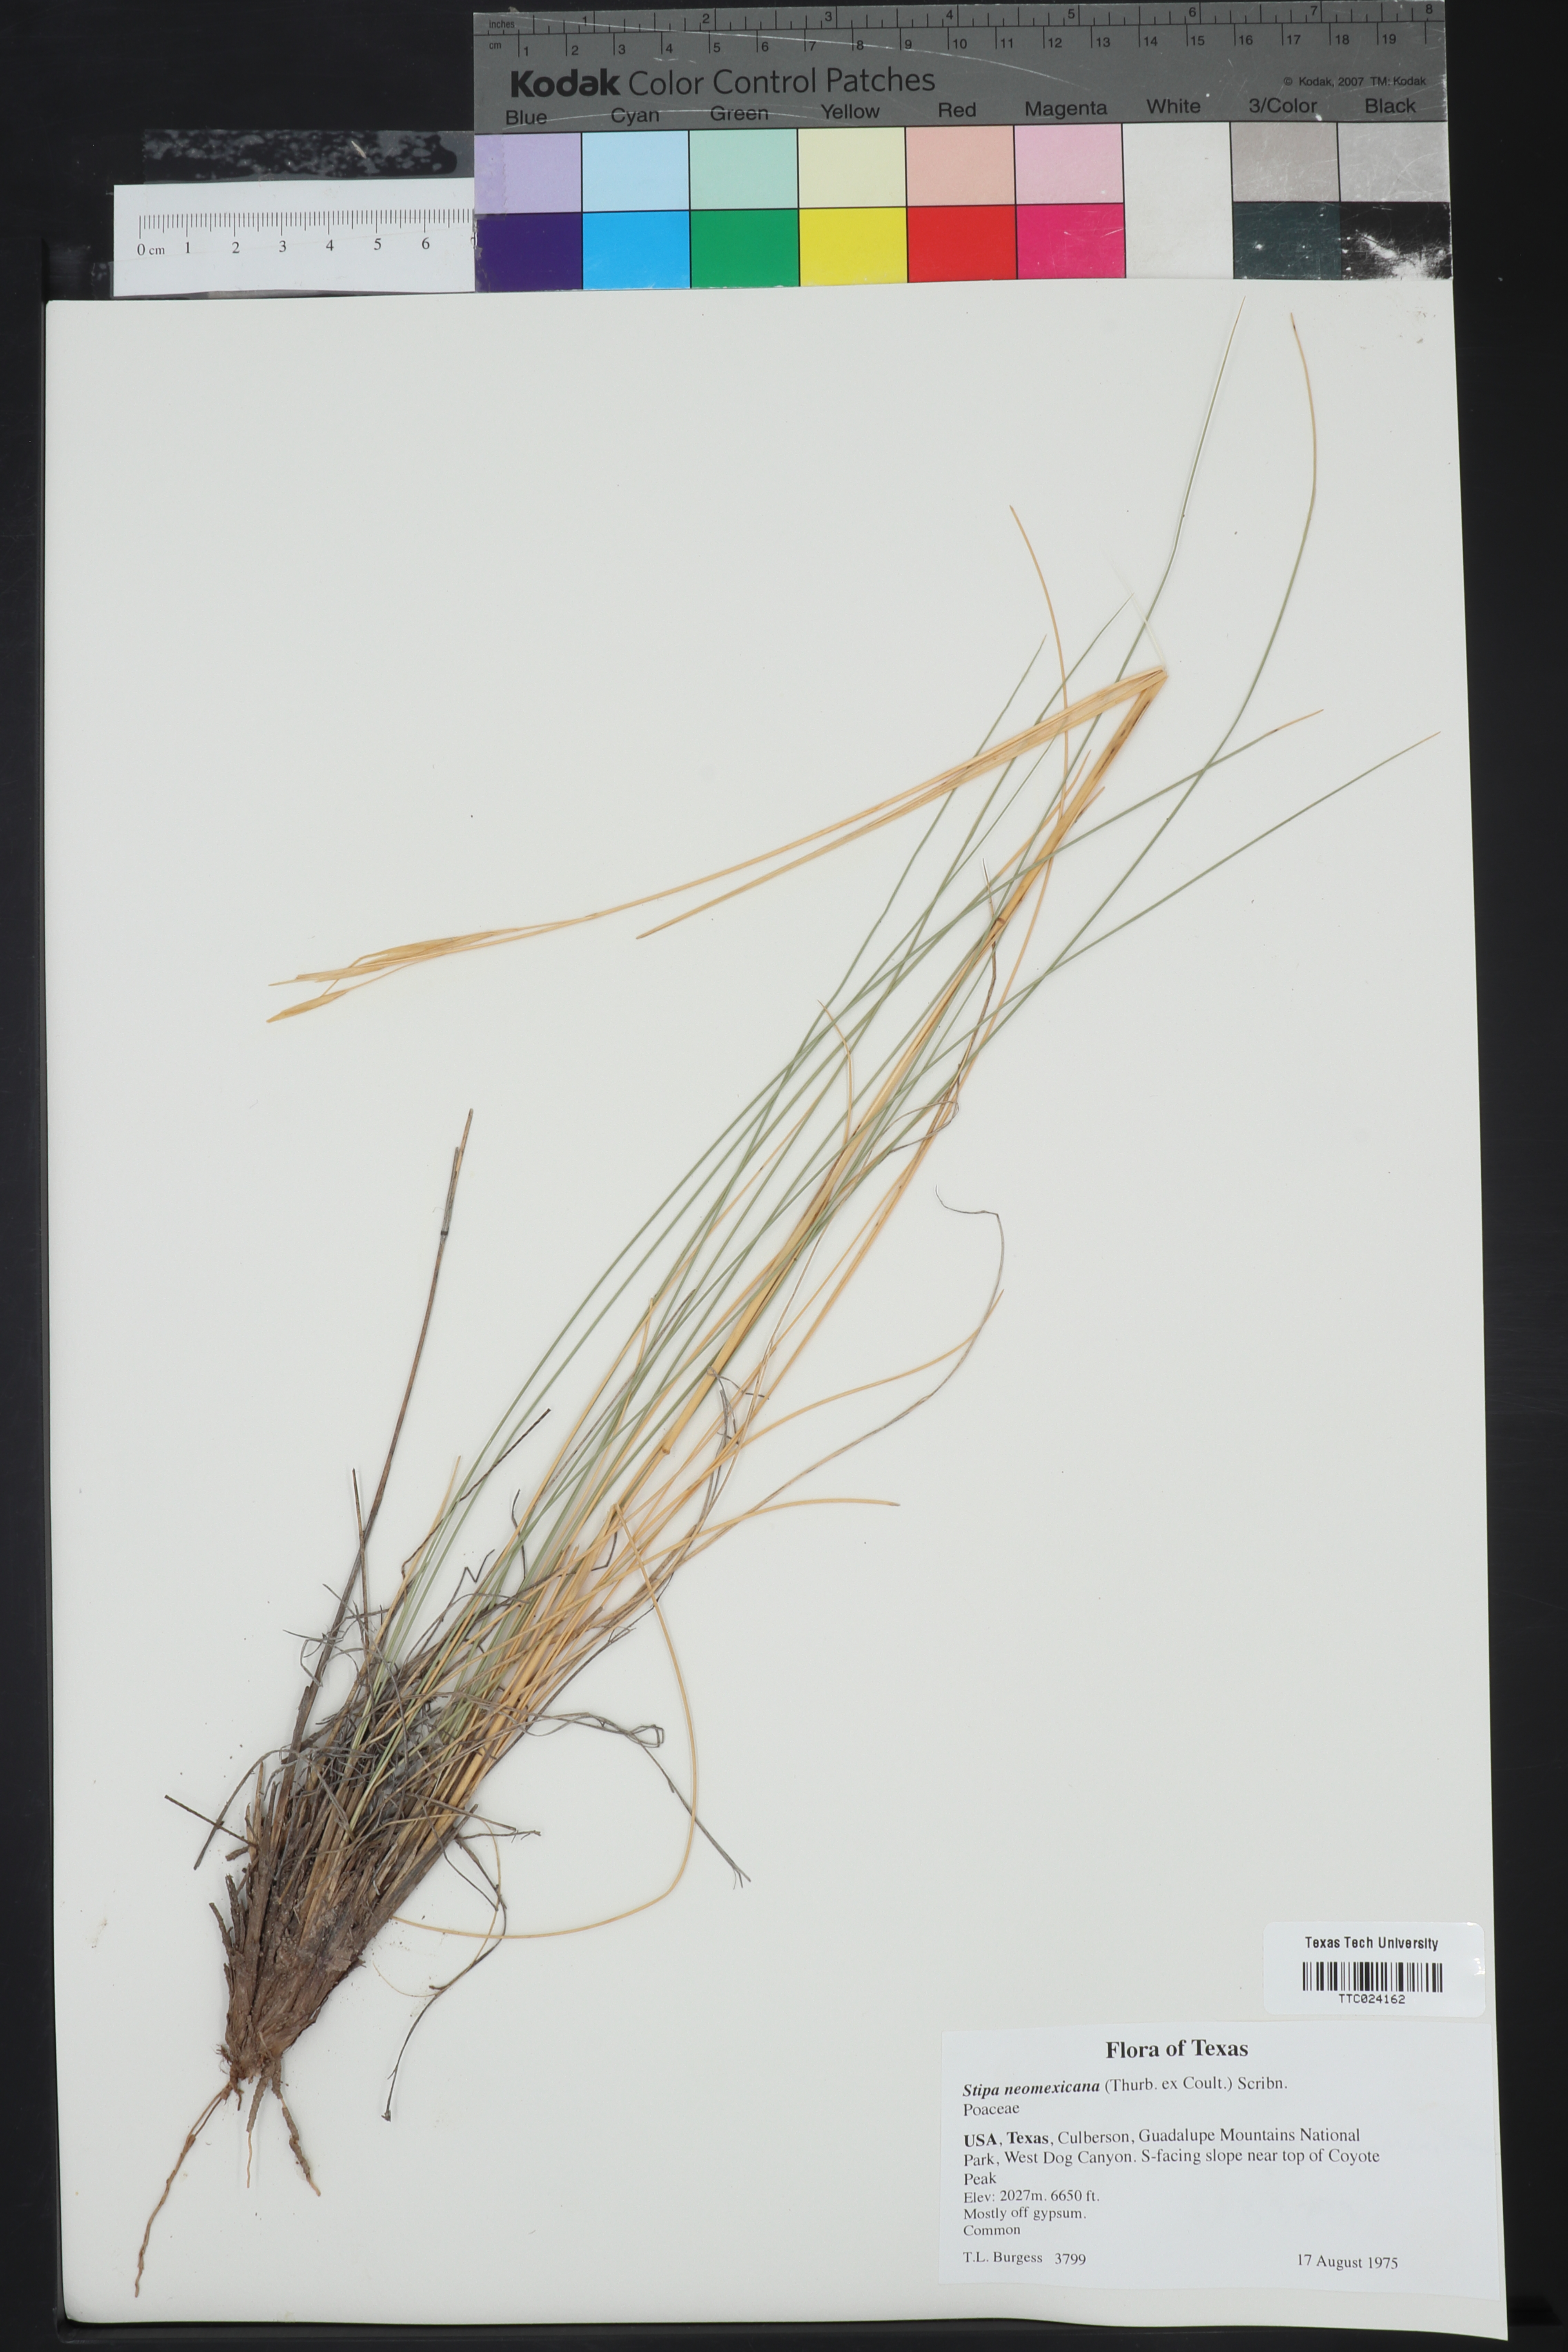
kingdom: Plantae
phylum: Tracheophyta
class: Liliopsida
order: Poales
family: Poaceae
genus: Hesperostipa
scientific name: Hesperostipa neomexicana
